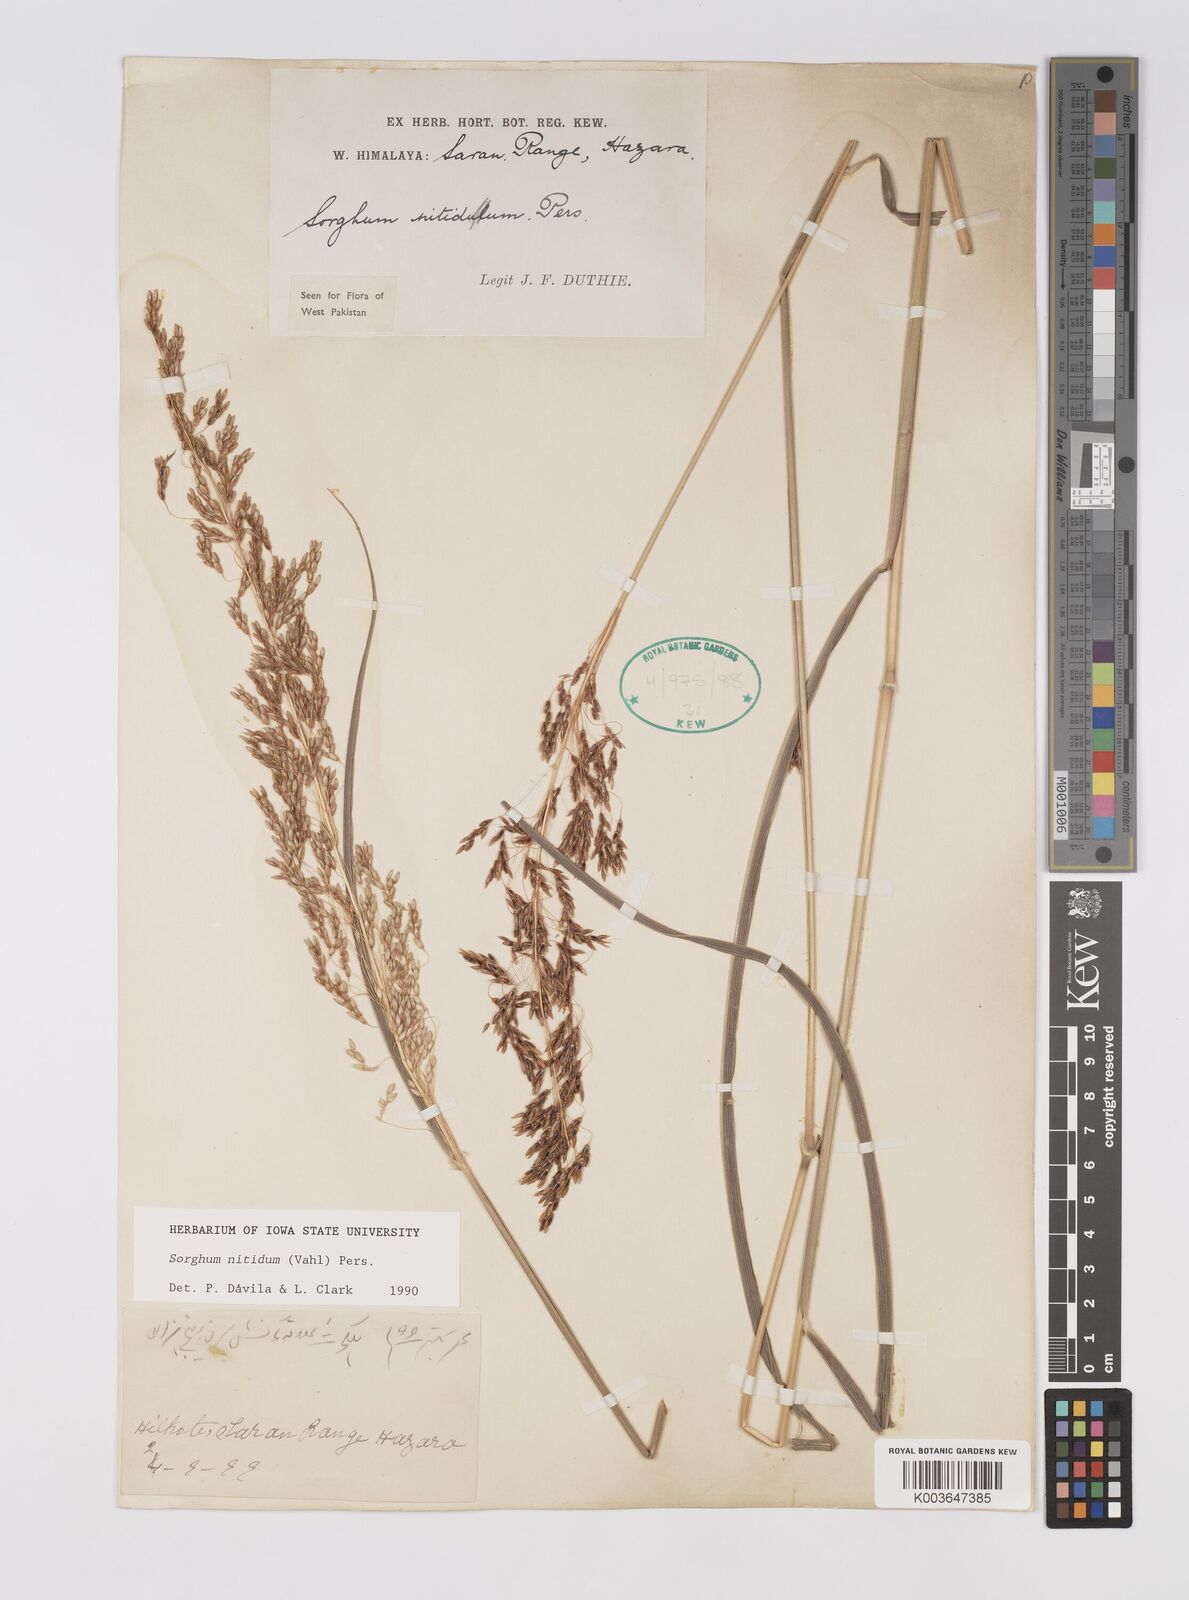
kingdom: Plantae
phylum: Tracheophyta
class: Liliopsida
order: Poales
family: Poaceae
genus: Sorghum
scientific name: Sorghum nitidum
